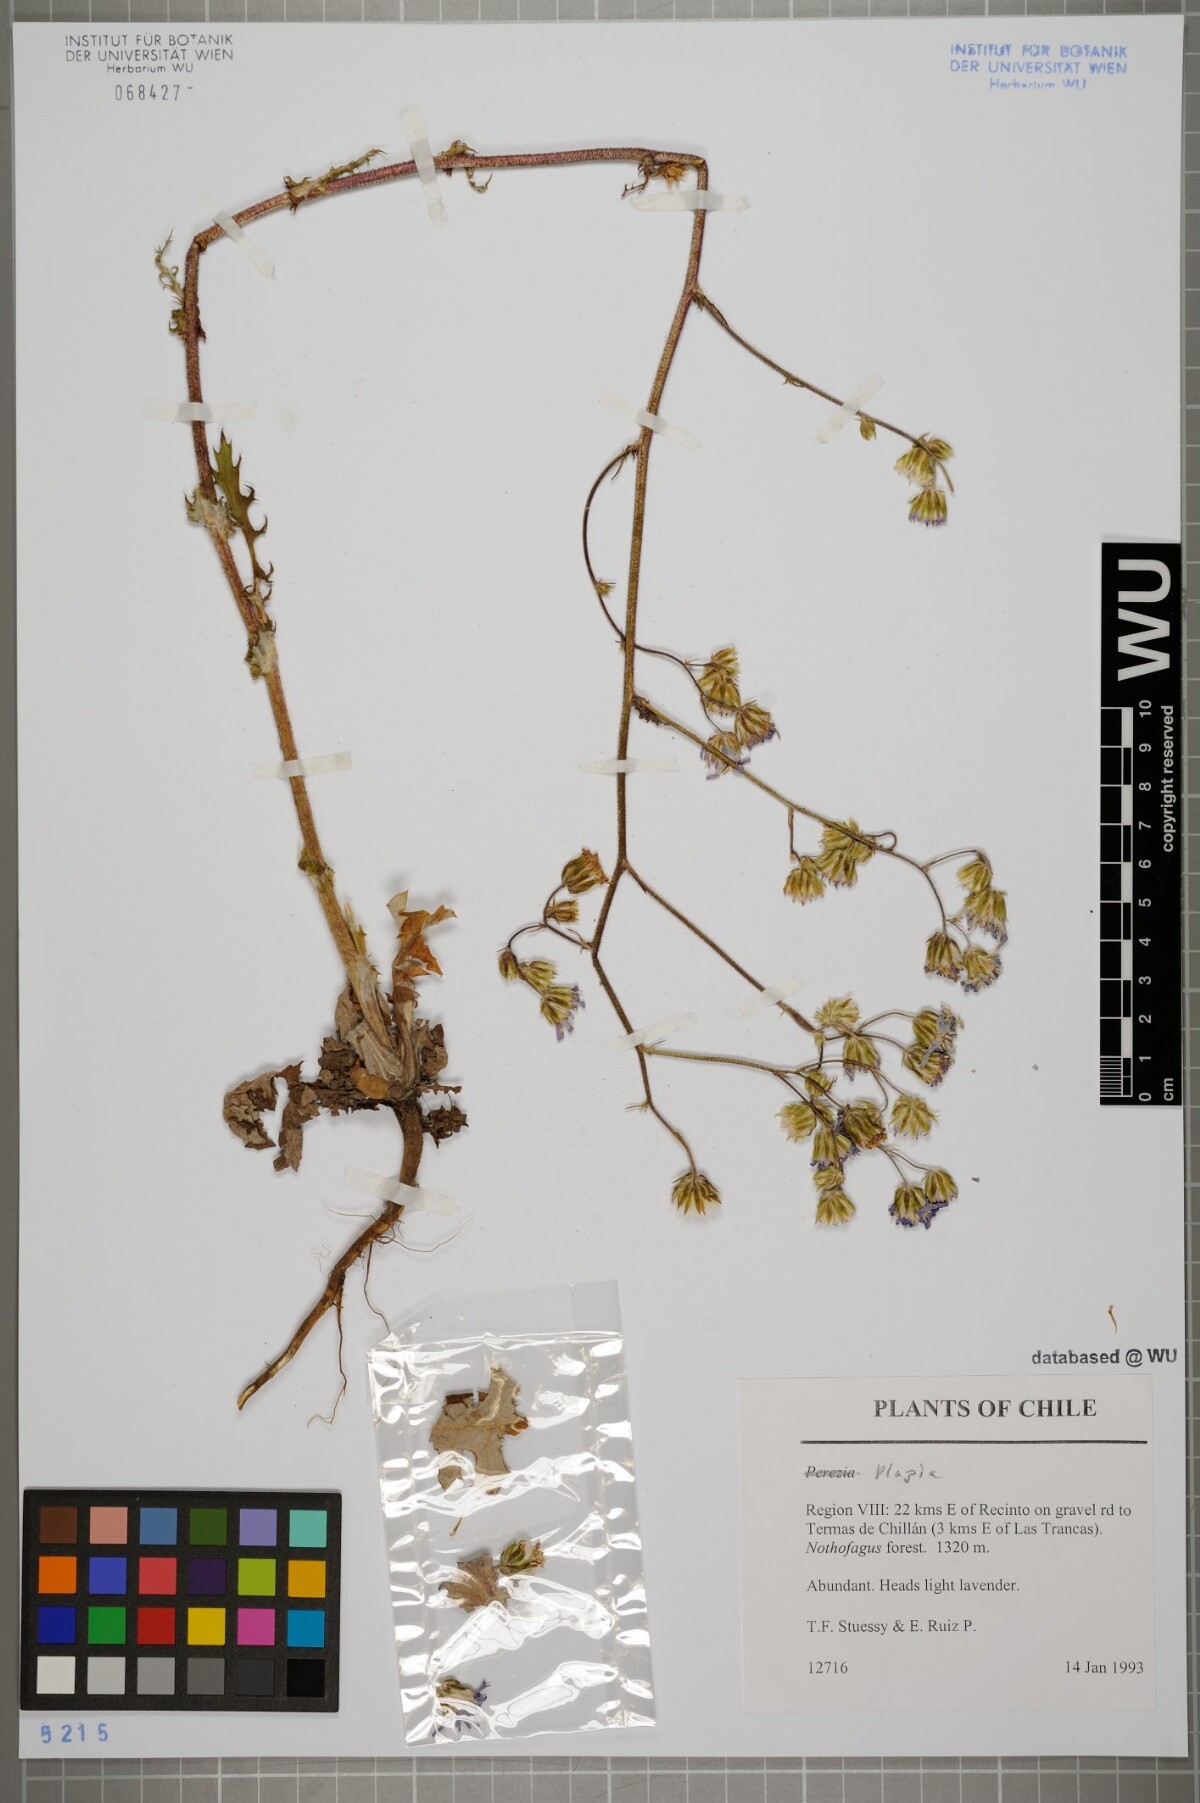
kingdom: Plantae
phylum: Tracheophyta
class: Magnoliopsida
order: Asterales
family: Asteraceae
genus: Plazia
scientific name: Plazia
